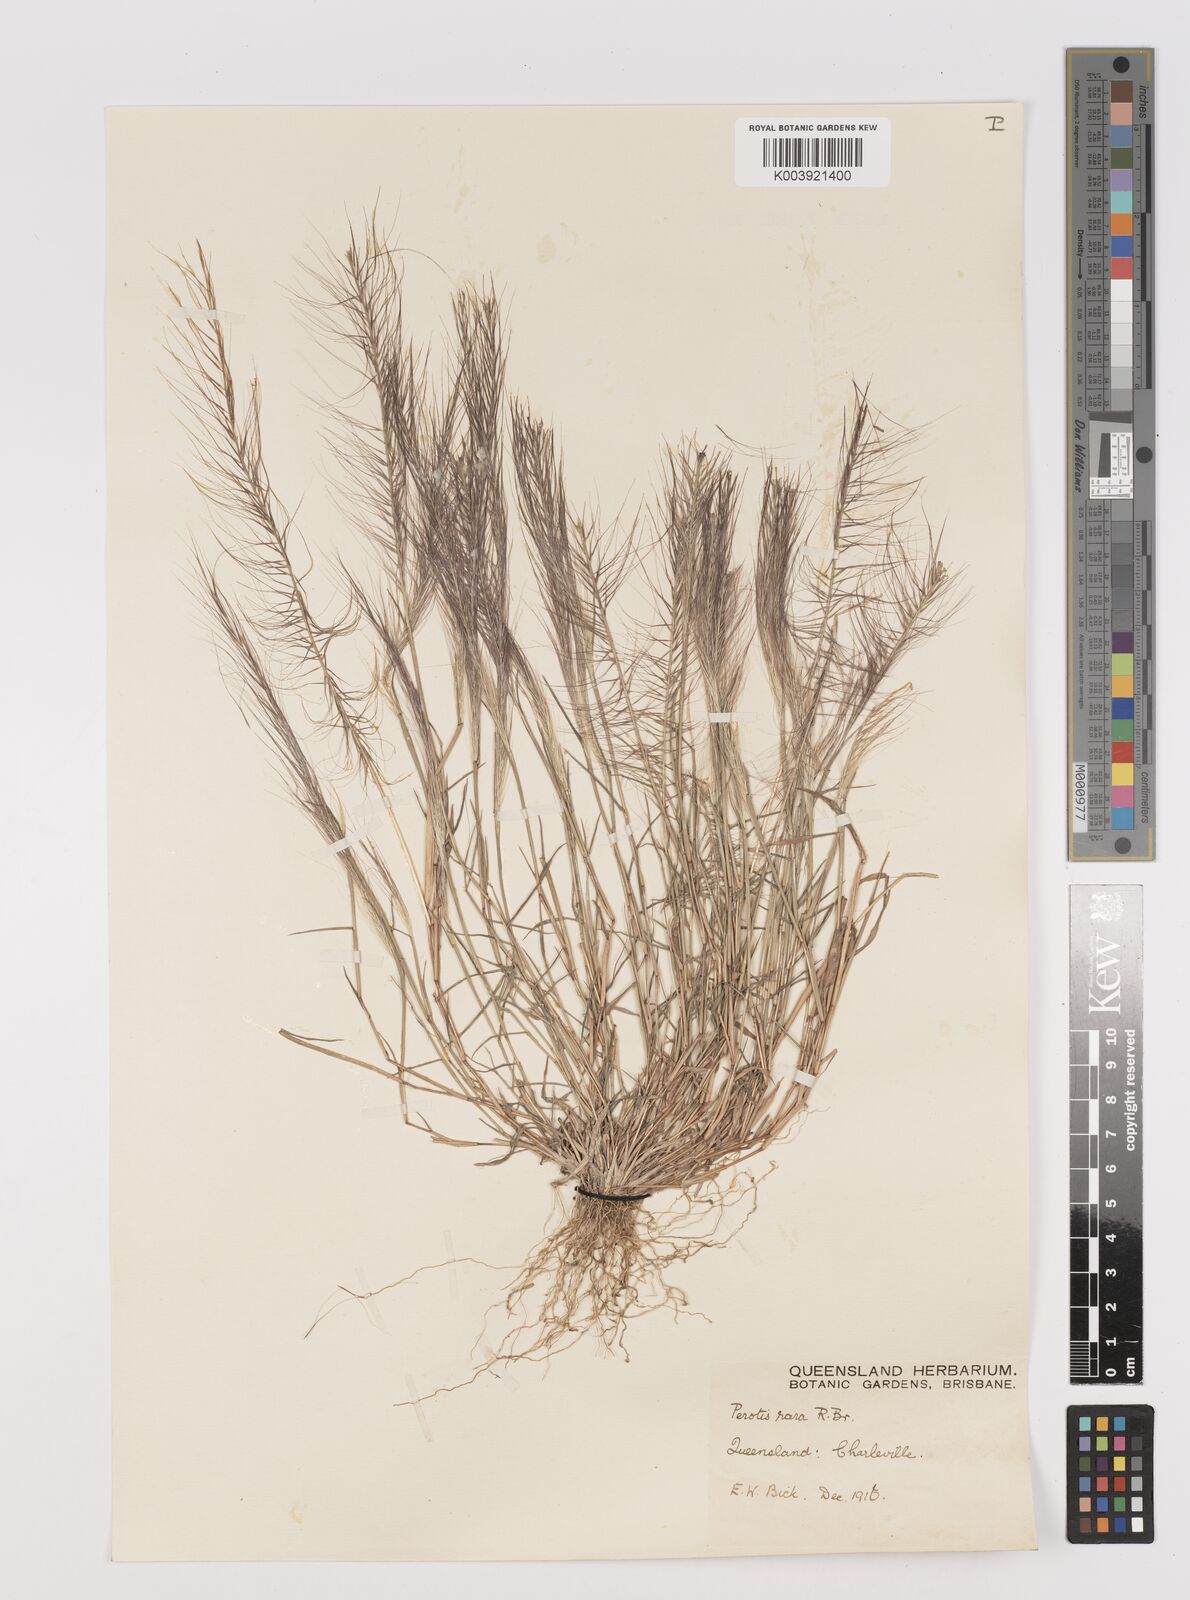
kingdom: Plantae
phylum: Tracheophyta
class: Liliopsida
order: Poales
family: Poaceae
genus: Perotis
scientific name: Perotis rara
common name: Comet grass
